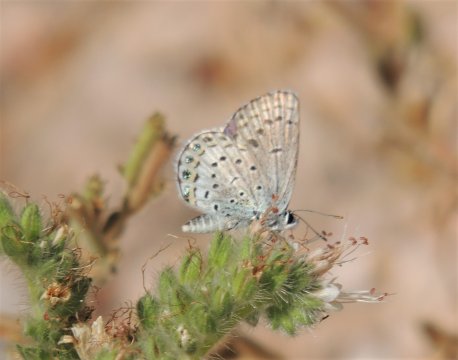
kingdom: Animalia
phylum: Arthropoda
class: Insecta
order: Lepidoptera
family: Lycaenidae
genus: Lycaeides
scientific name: Lycaeides melissa
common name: Melissa Blue
